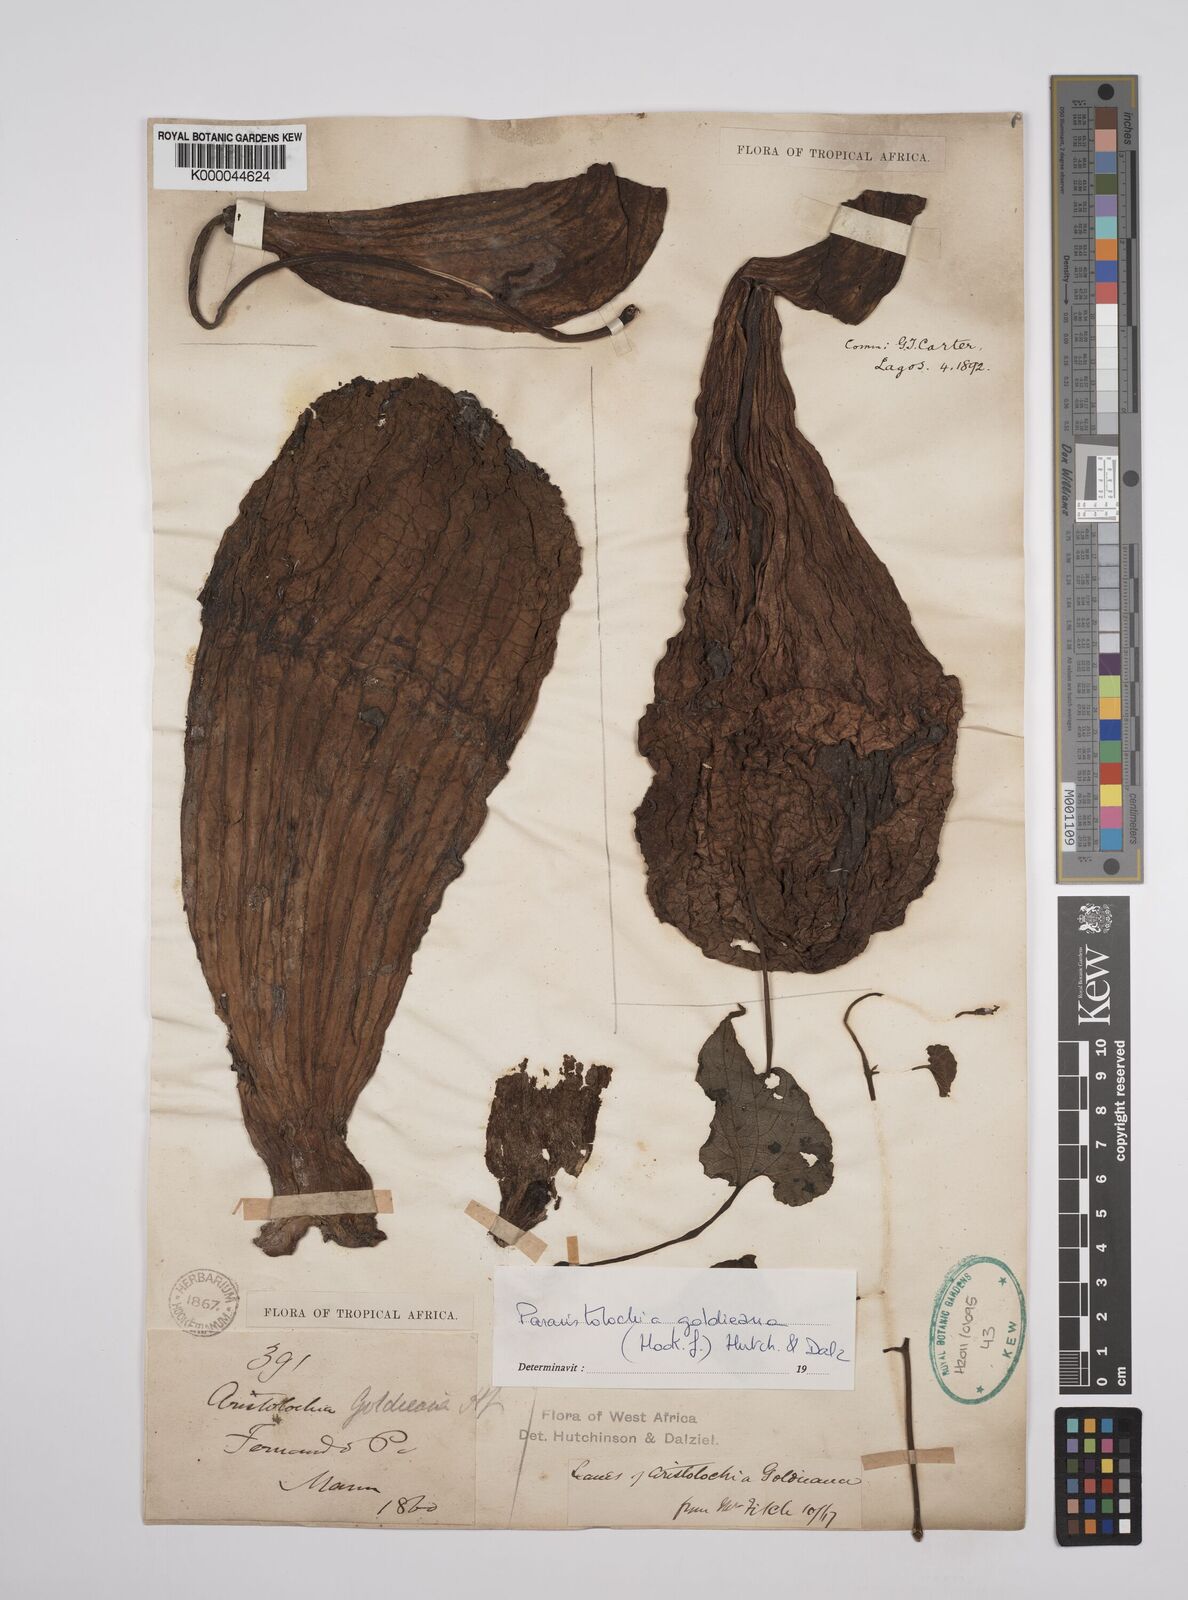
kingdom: Plantae
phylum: Tracheophyta
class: Magnoliopsida
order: Piperales
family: Aristolochiaceae
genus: Aristolochia
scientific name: Aristolochia goldieana
